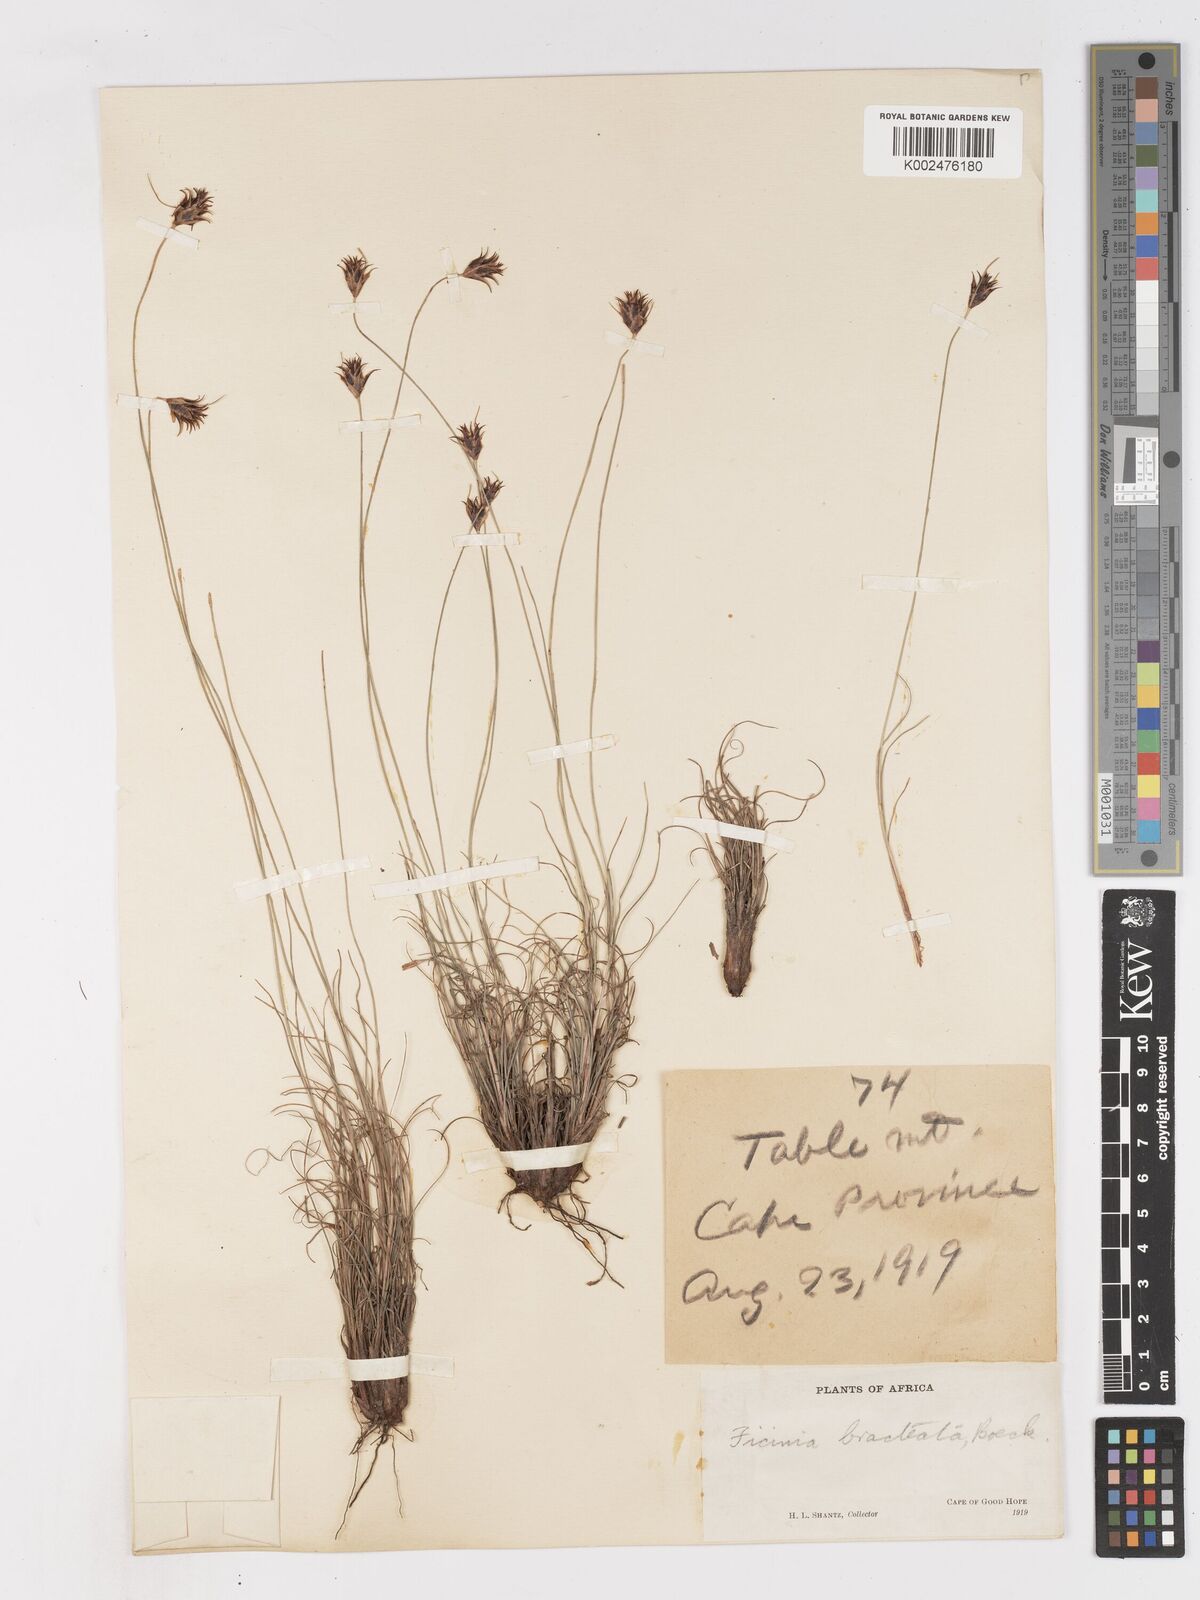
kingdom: Plantae
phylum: Tracheophyta
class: Liliopsida
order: Poales
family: Cyperaceae
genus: Ficinia
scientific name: Ficinia nigrescens
